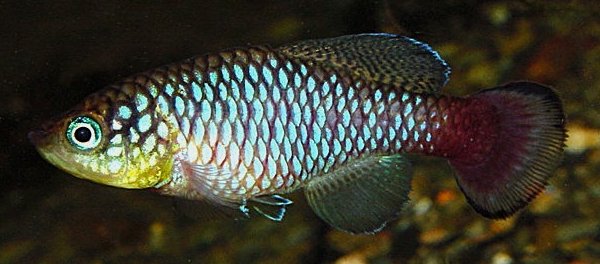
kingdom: Animalia
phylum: Chordata
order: Cyprinodontiformes
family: Nothobranchiidae
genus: Nothobranchius
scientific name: Nothobranchius krammeri
